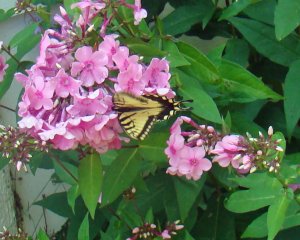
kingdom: Animalia
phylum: Arthropoda
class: Insecta
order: Lepidoptera
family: Papilionidae
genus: Pterourus
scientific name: Pterourus canadensis
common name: Canadian Tiger Swallowtail
